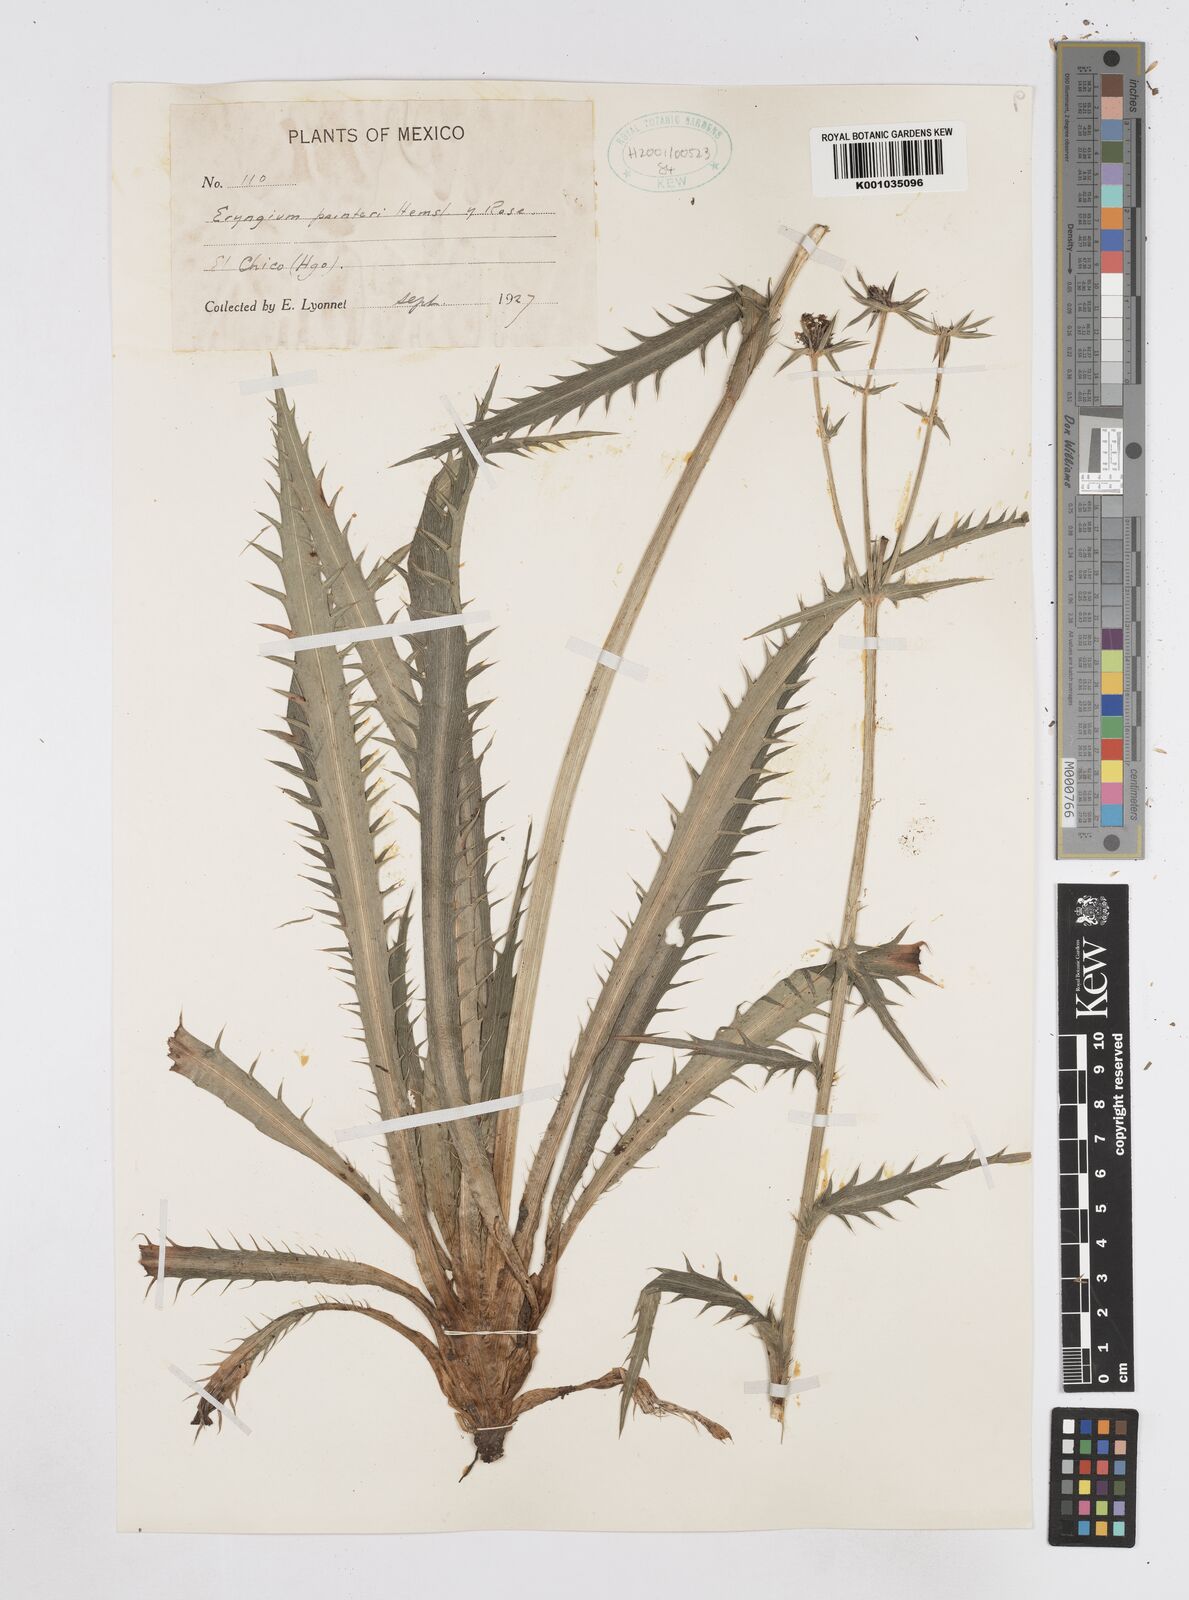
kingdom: Plantae
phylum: Tracheophyta
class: Magnoliopsida
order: Apiales
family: Apiaceae
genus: Eryngium
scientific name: Eryngium deppeanum
